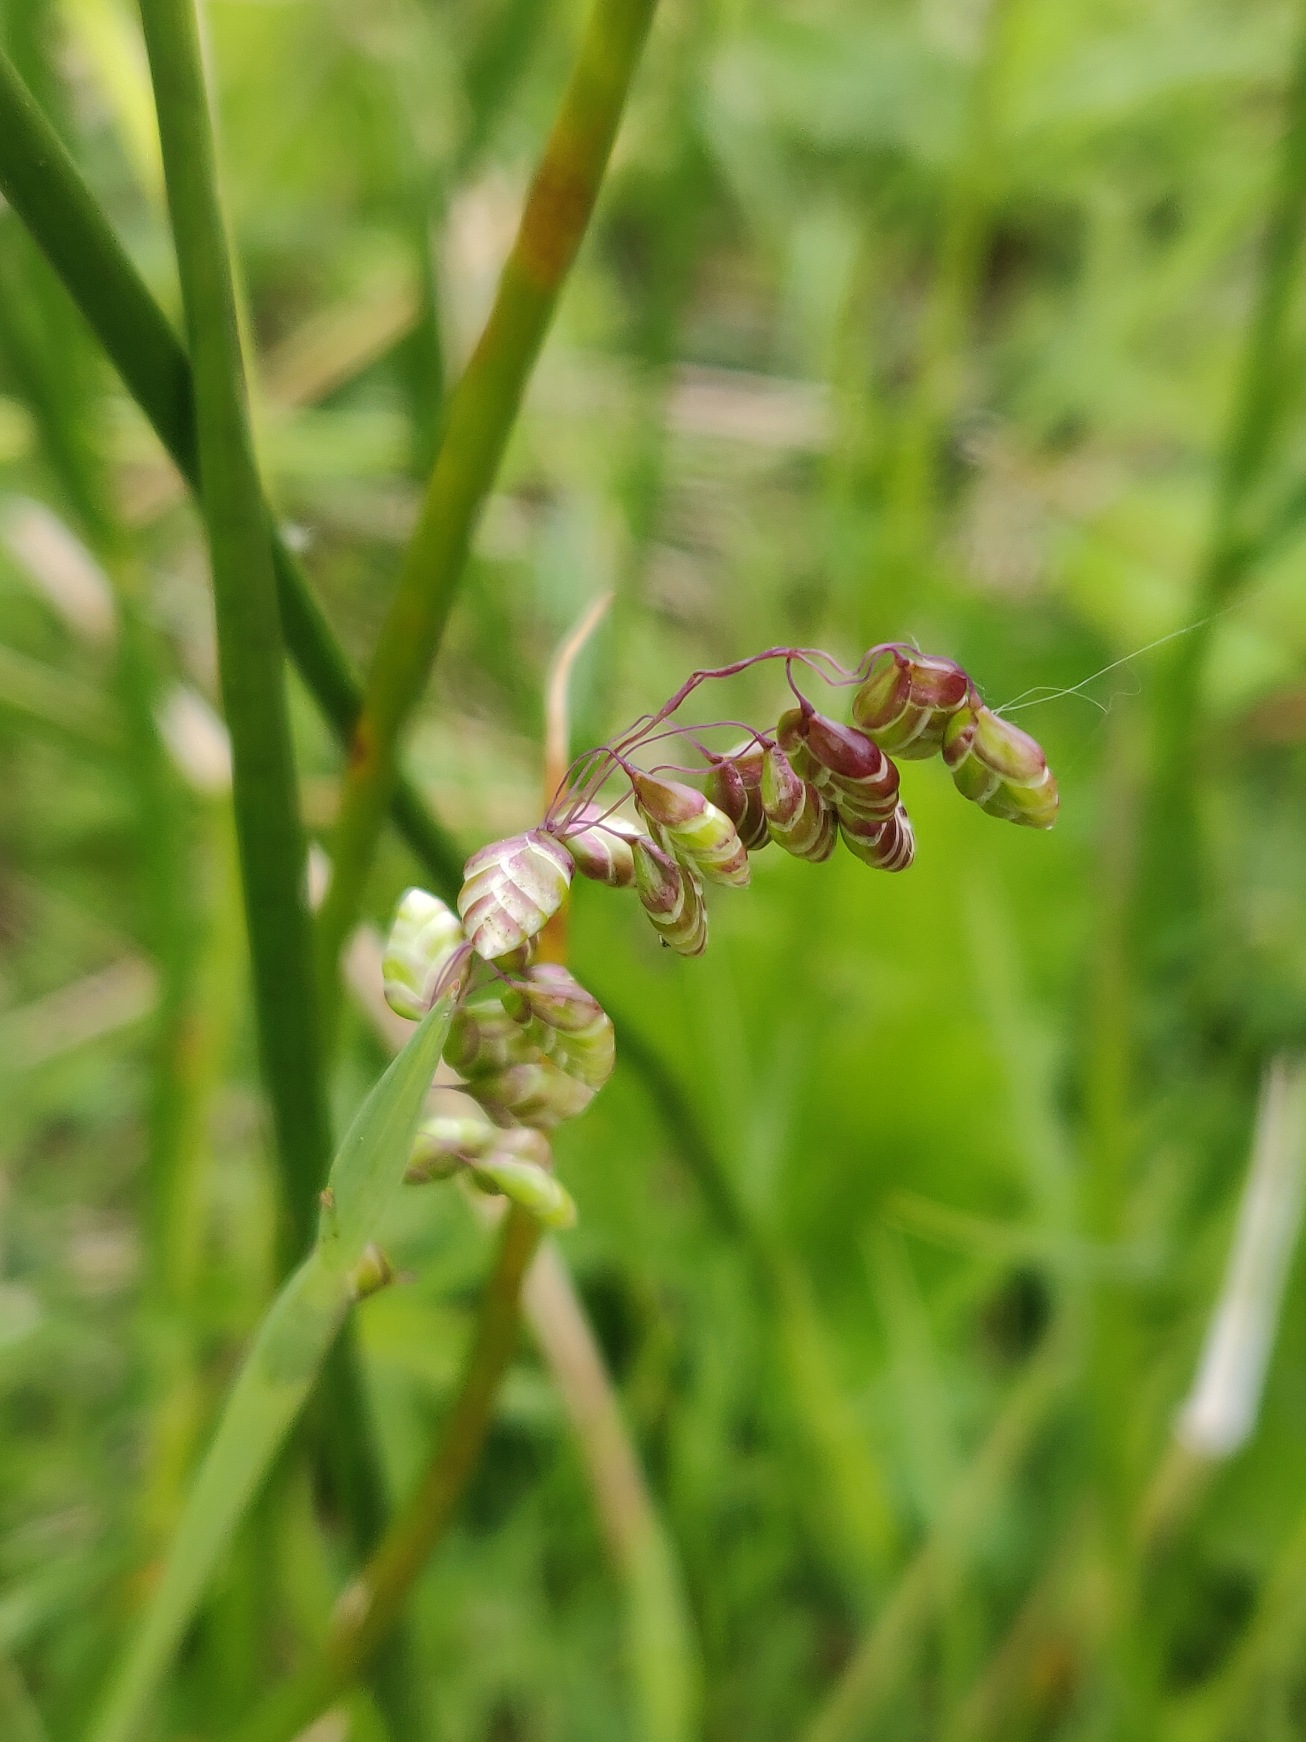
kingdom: Plantae
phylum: Tracheophyta
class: Liliopsida
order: Poales
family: Poaceae
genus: Briza
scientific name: Briza media
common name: Hjertegræs
